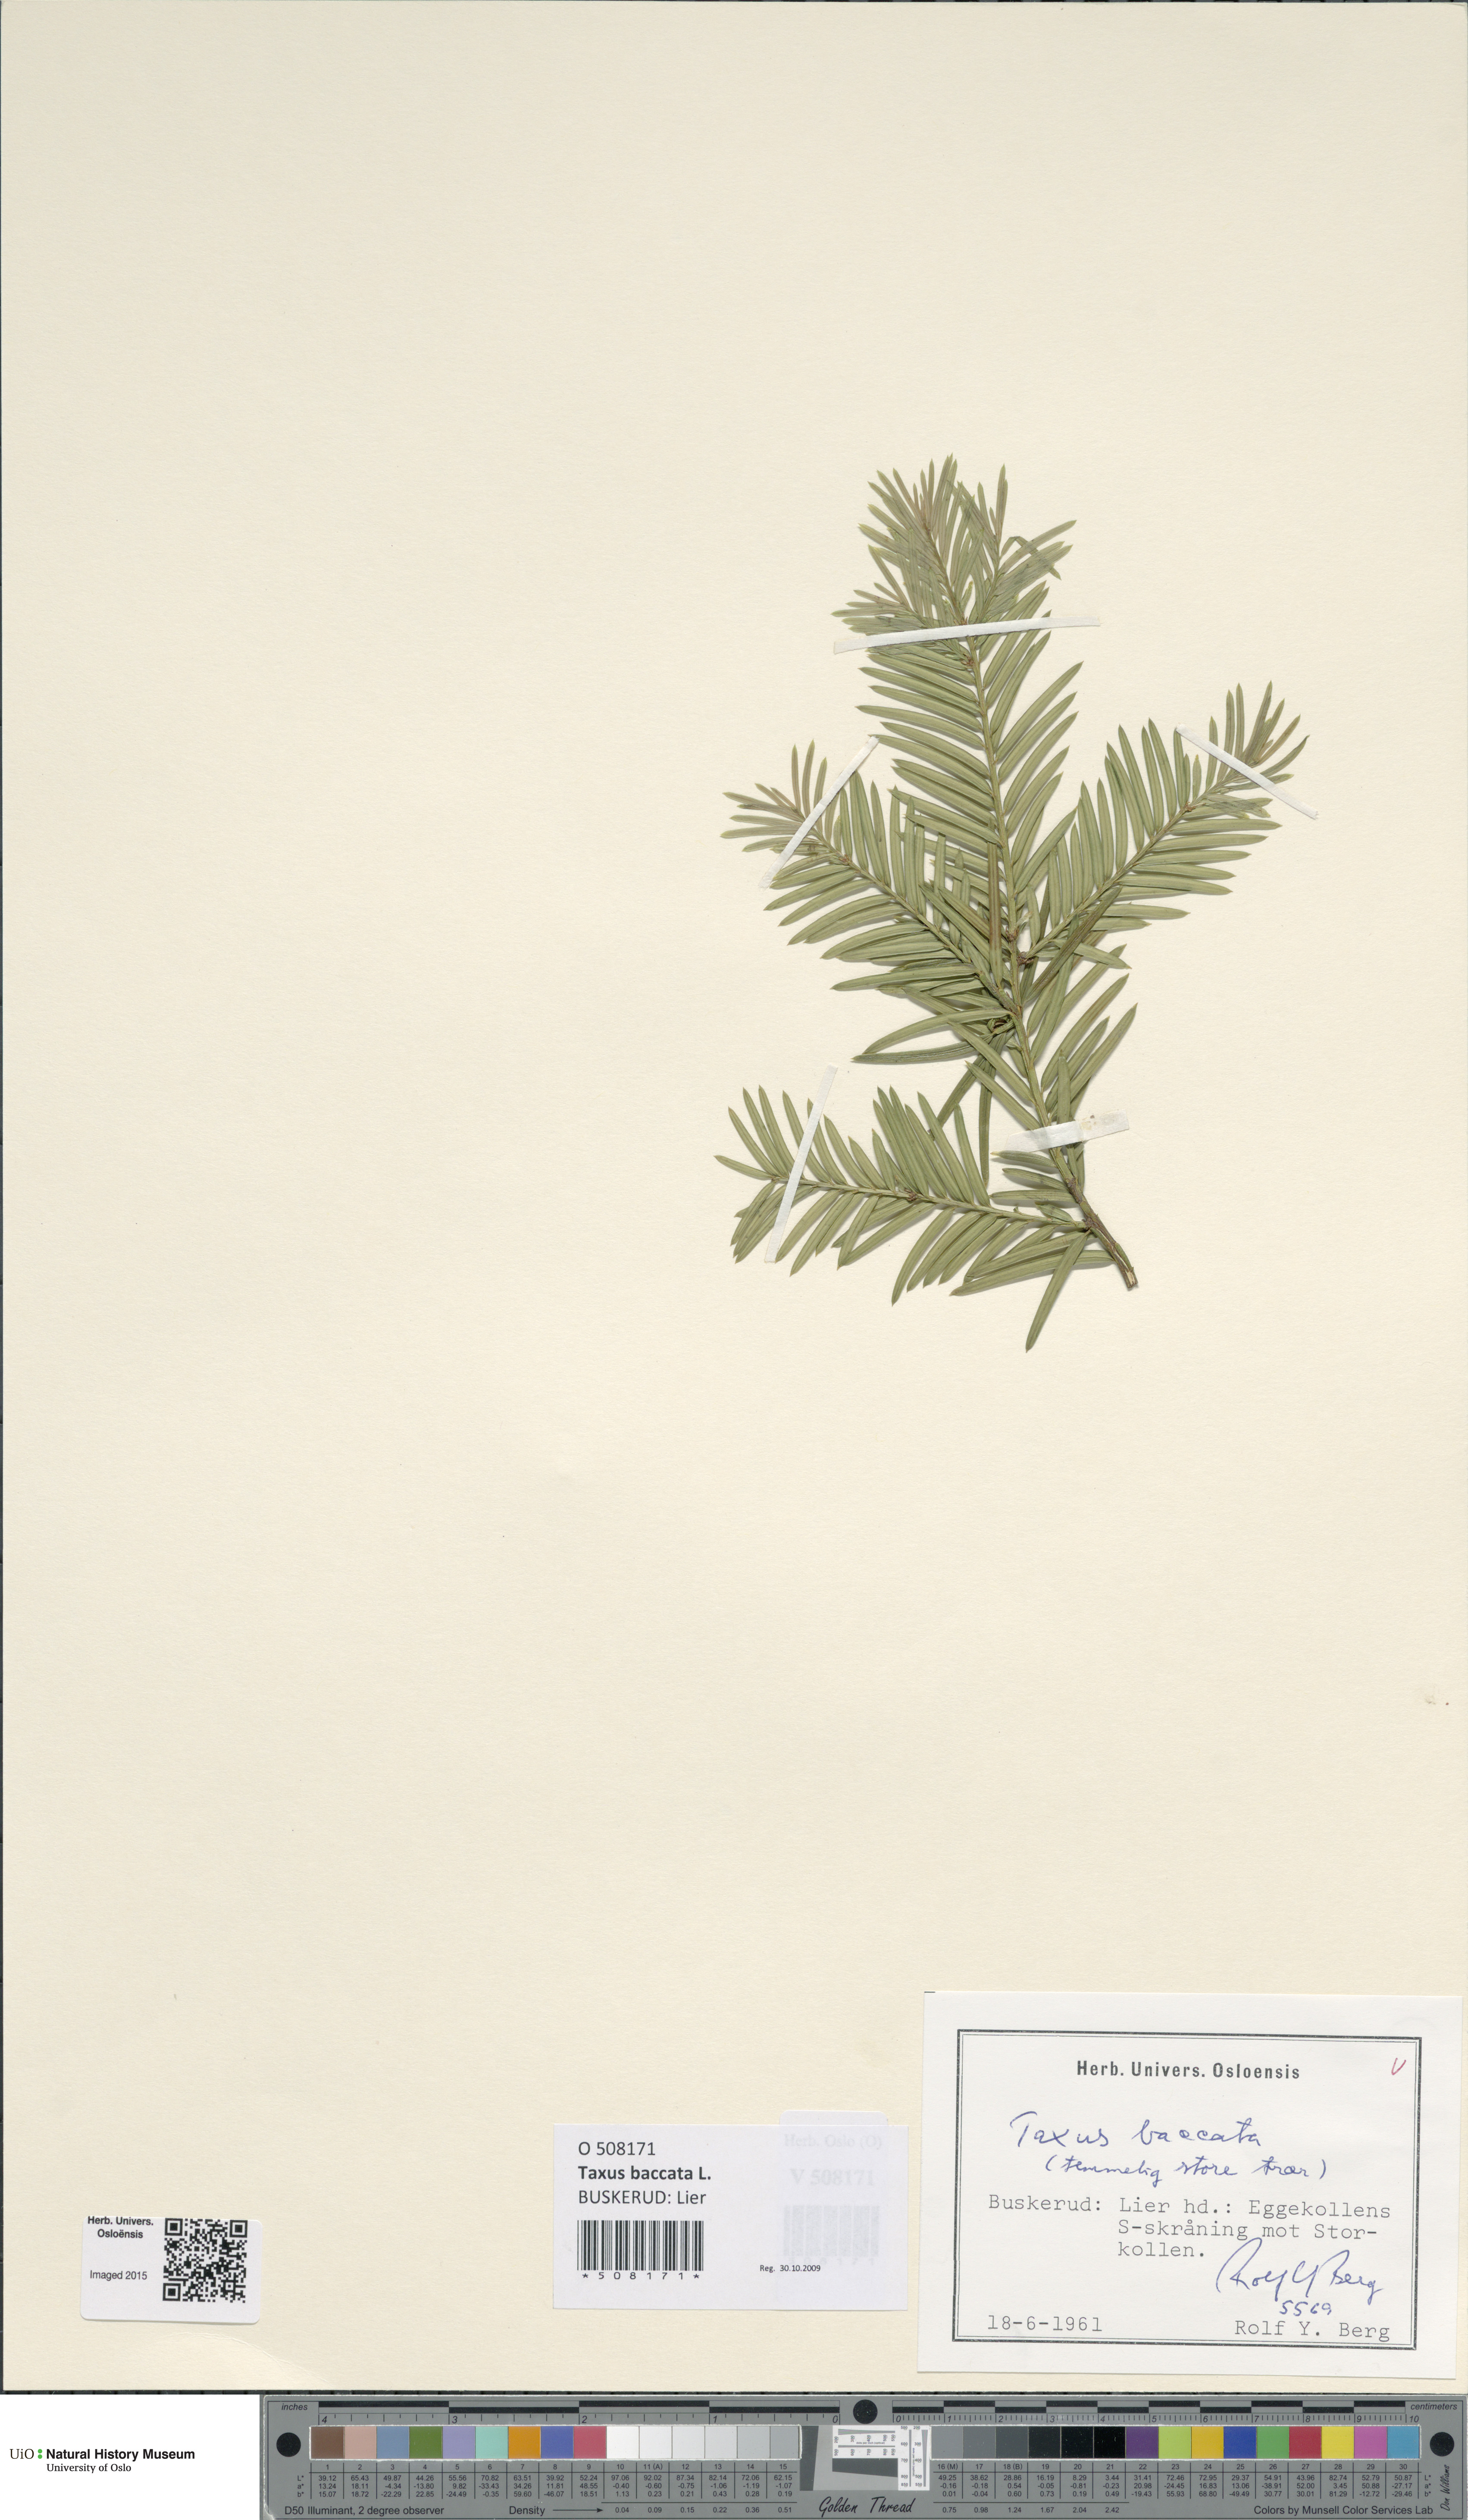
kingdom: Plantae
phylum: Tracheophyta
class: Pinopsida
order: Pinales
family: Taxaceae
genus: Taxus
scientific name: Taxus baccata
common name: Yew
